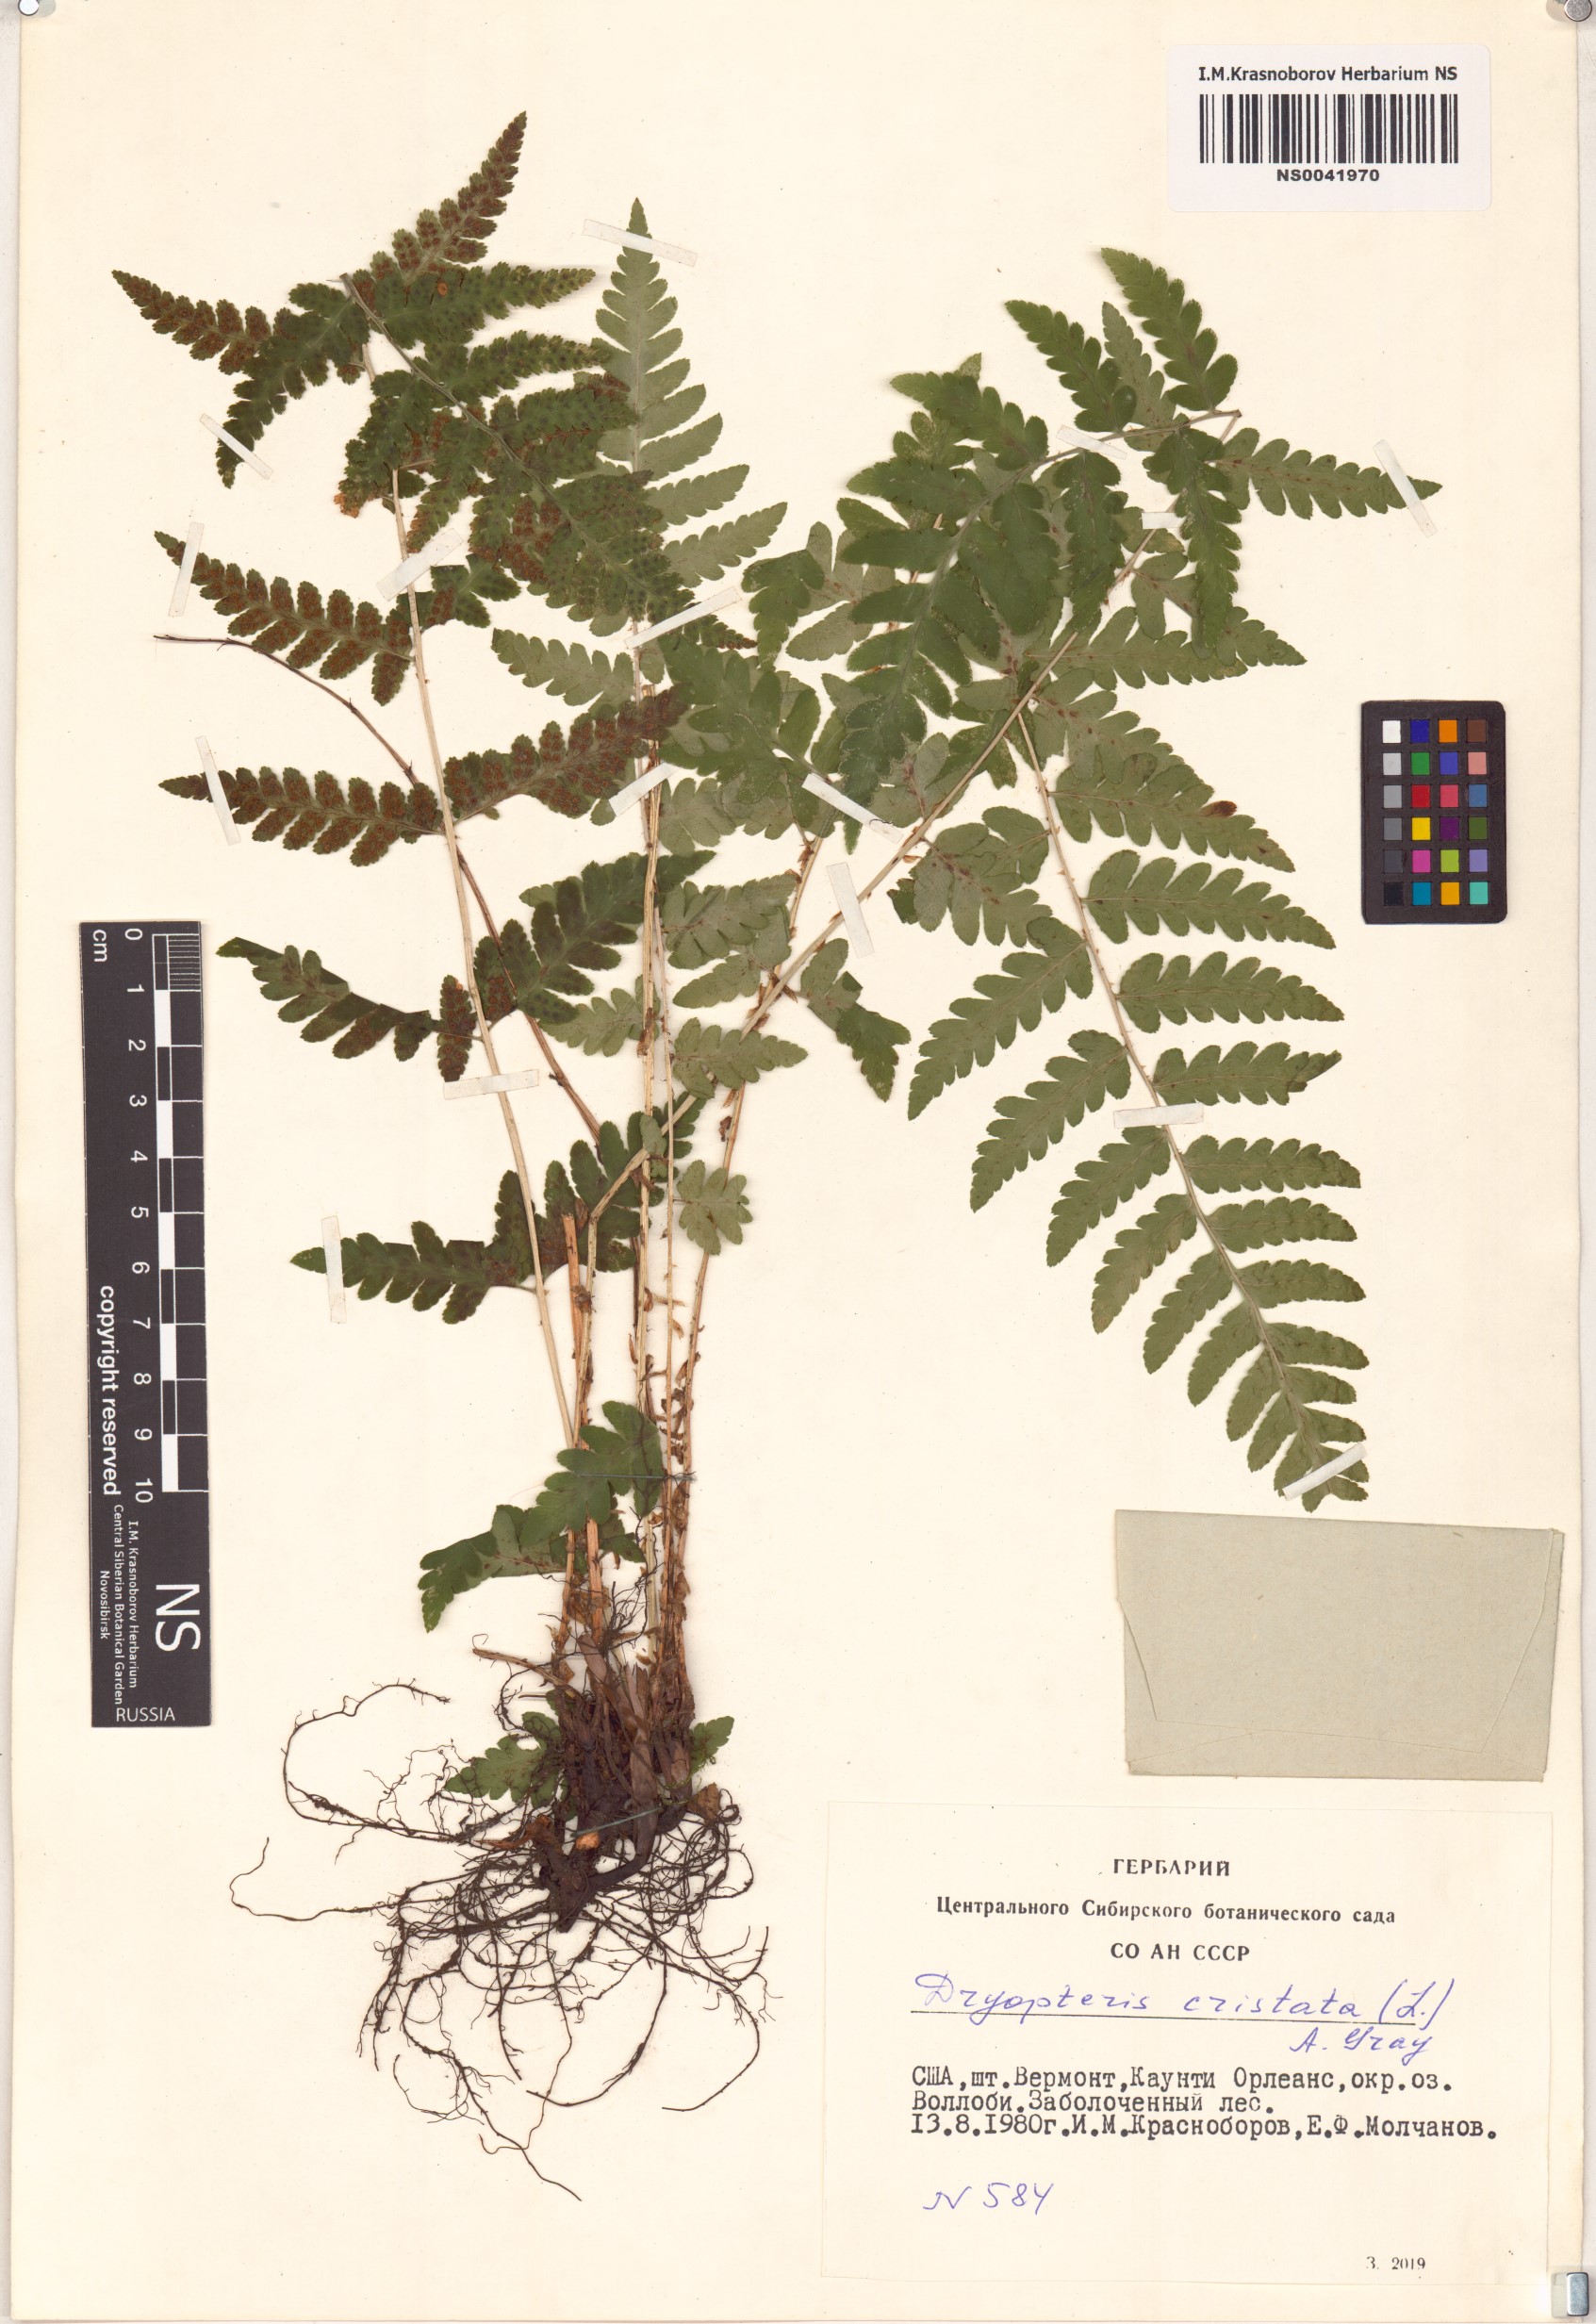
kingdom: Plantae
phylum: Tracheophyta
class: Polypodiopsida
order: Polypodiales
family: Dryopteridaceae
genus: Dryopteris
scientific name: Dryopteris cristata
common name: Crested wood fern
